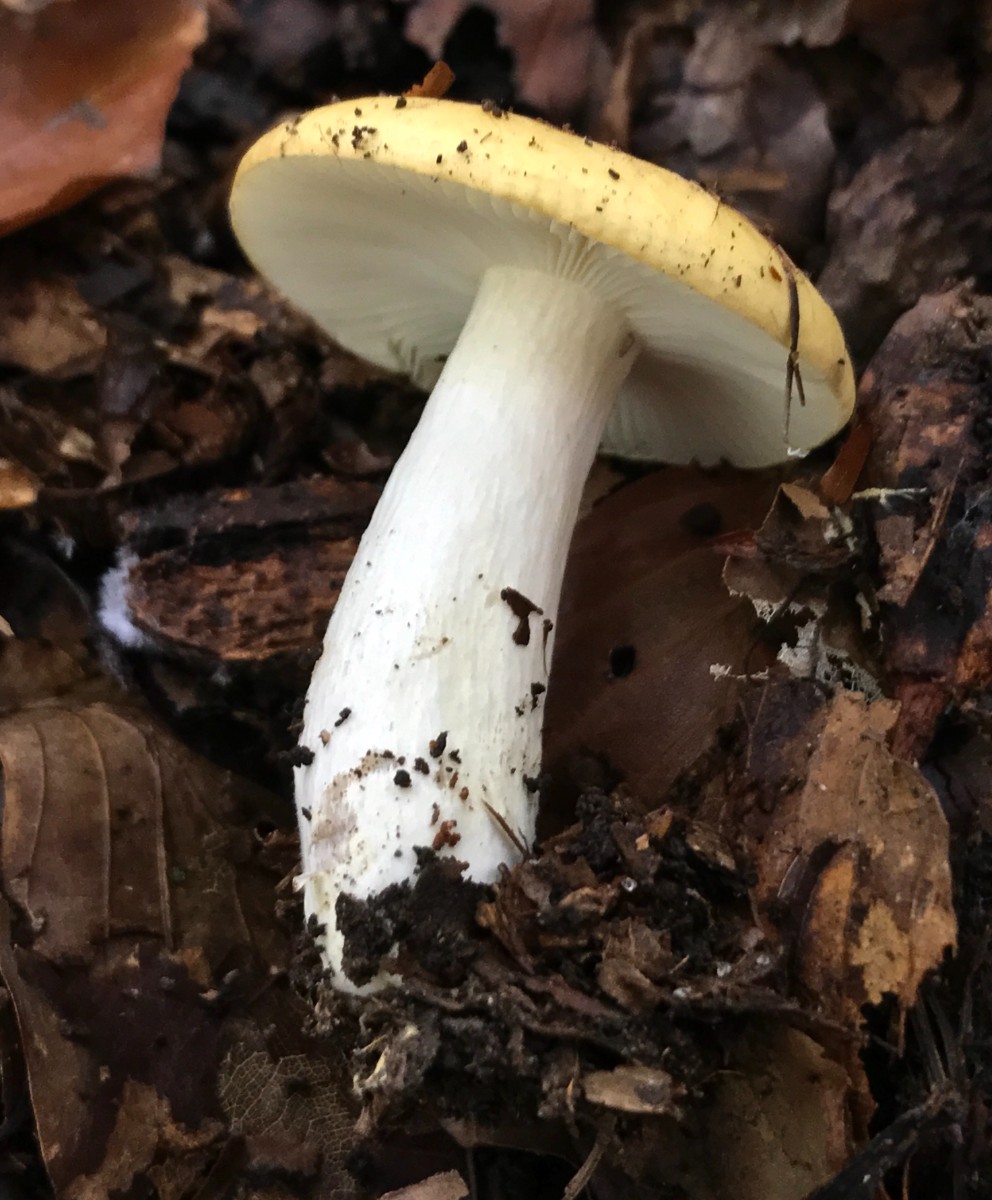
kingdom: Fungi
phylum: Basidiomycota
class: Agaricomycetes
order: Russulales
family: Russulaceae
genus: Russula
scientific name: Russula ochroleuca
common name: okkergul skørhat
